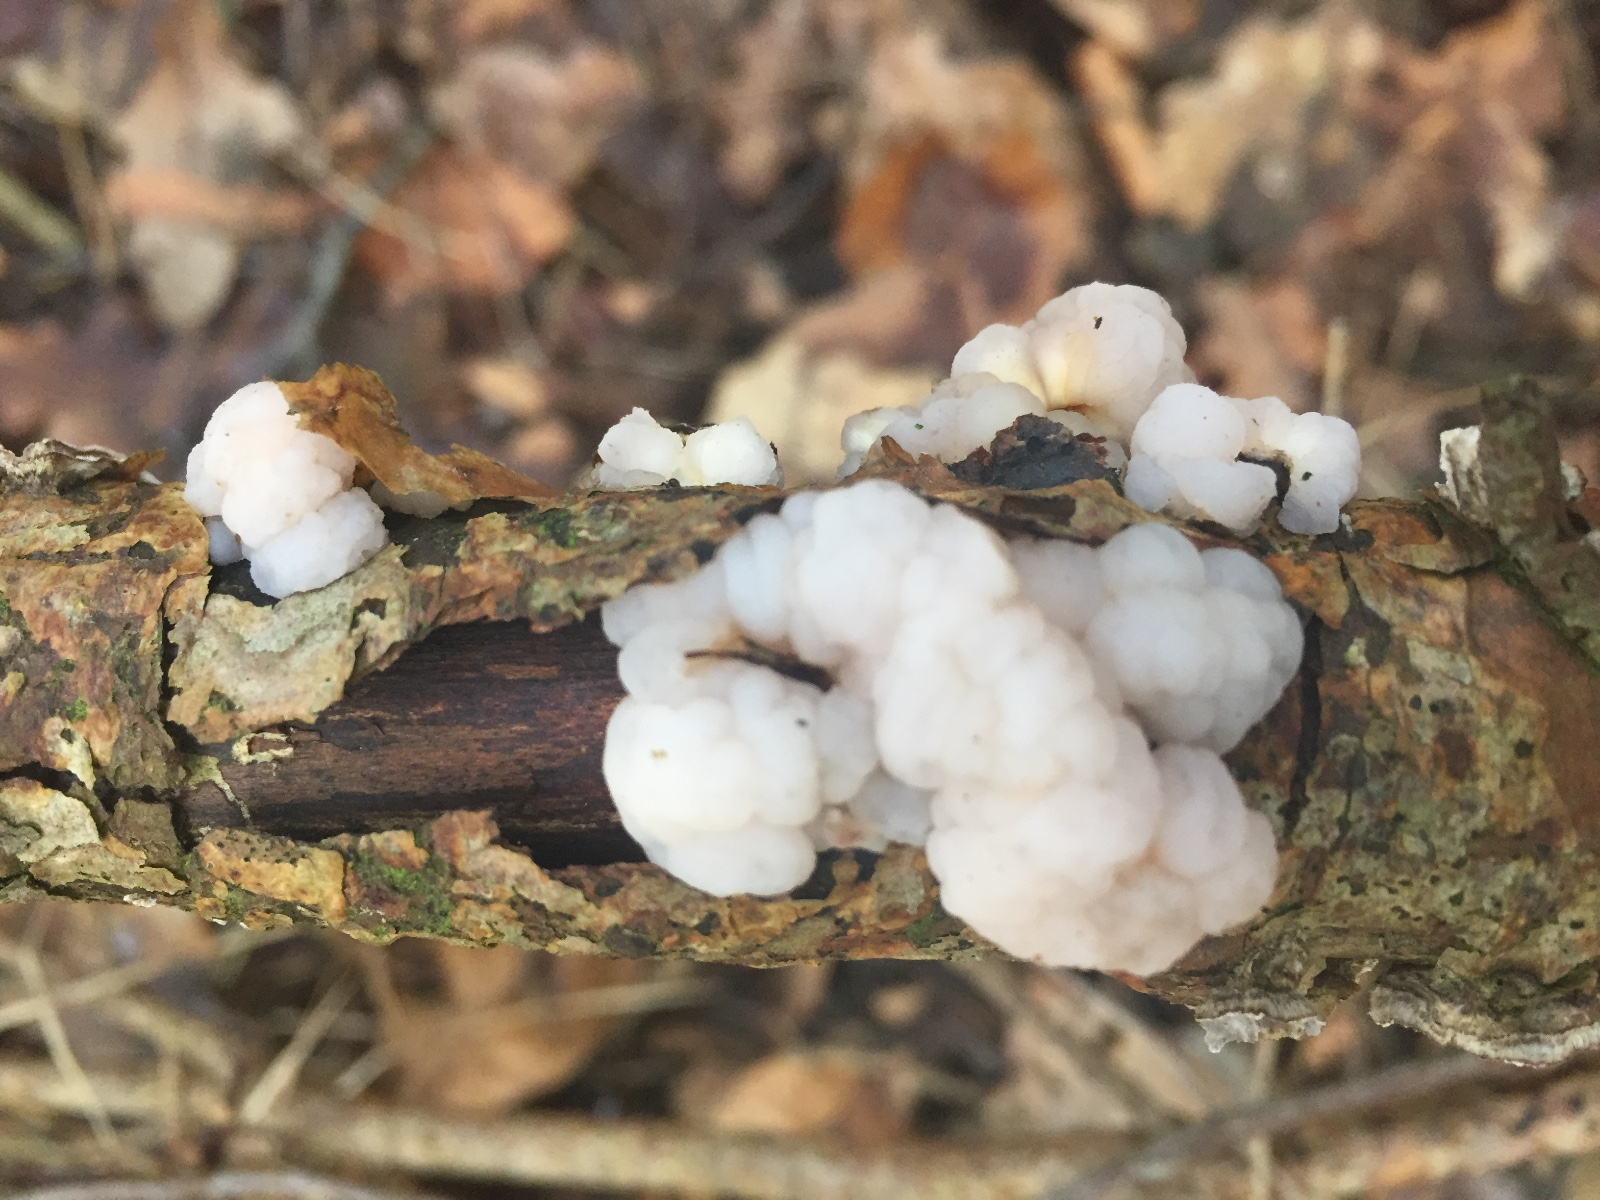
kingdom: Fungi
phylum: Basidiomycota
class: Tremellomycetes
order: Tremellales
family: Naemateliaceae
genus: Naematelia
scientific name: Naematelia encephala
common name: fyrre-bævresvamp
